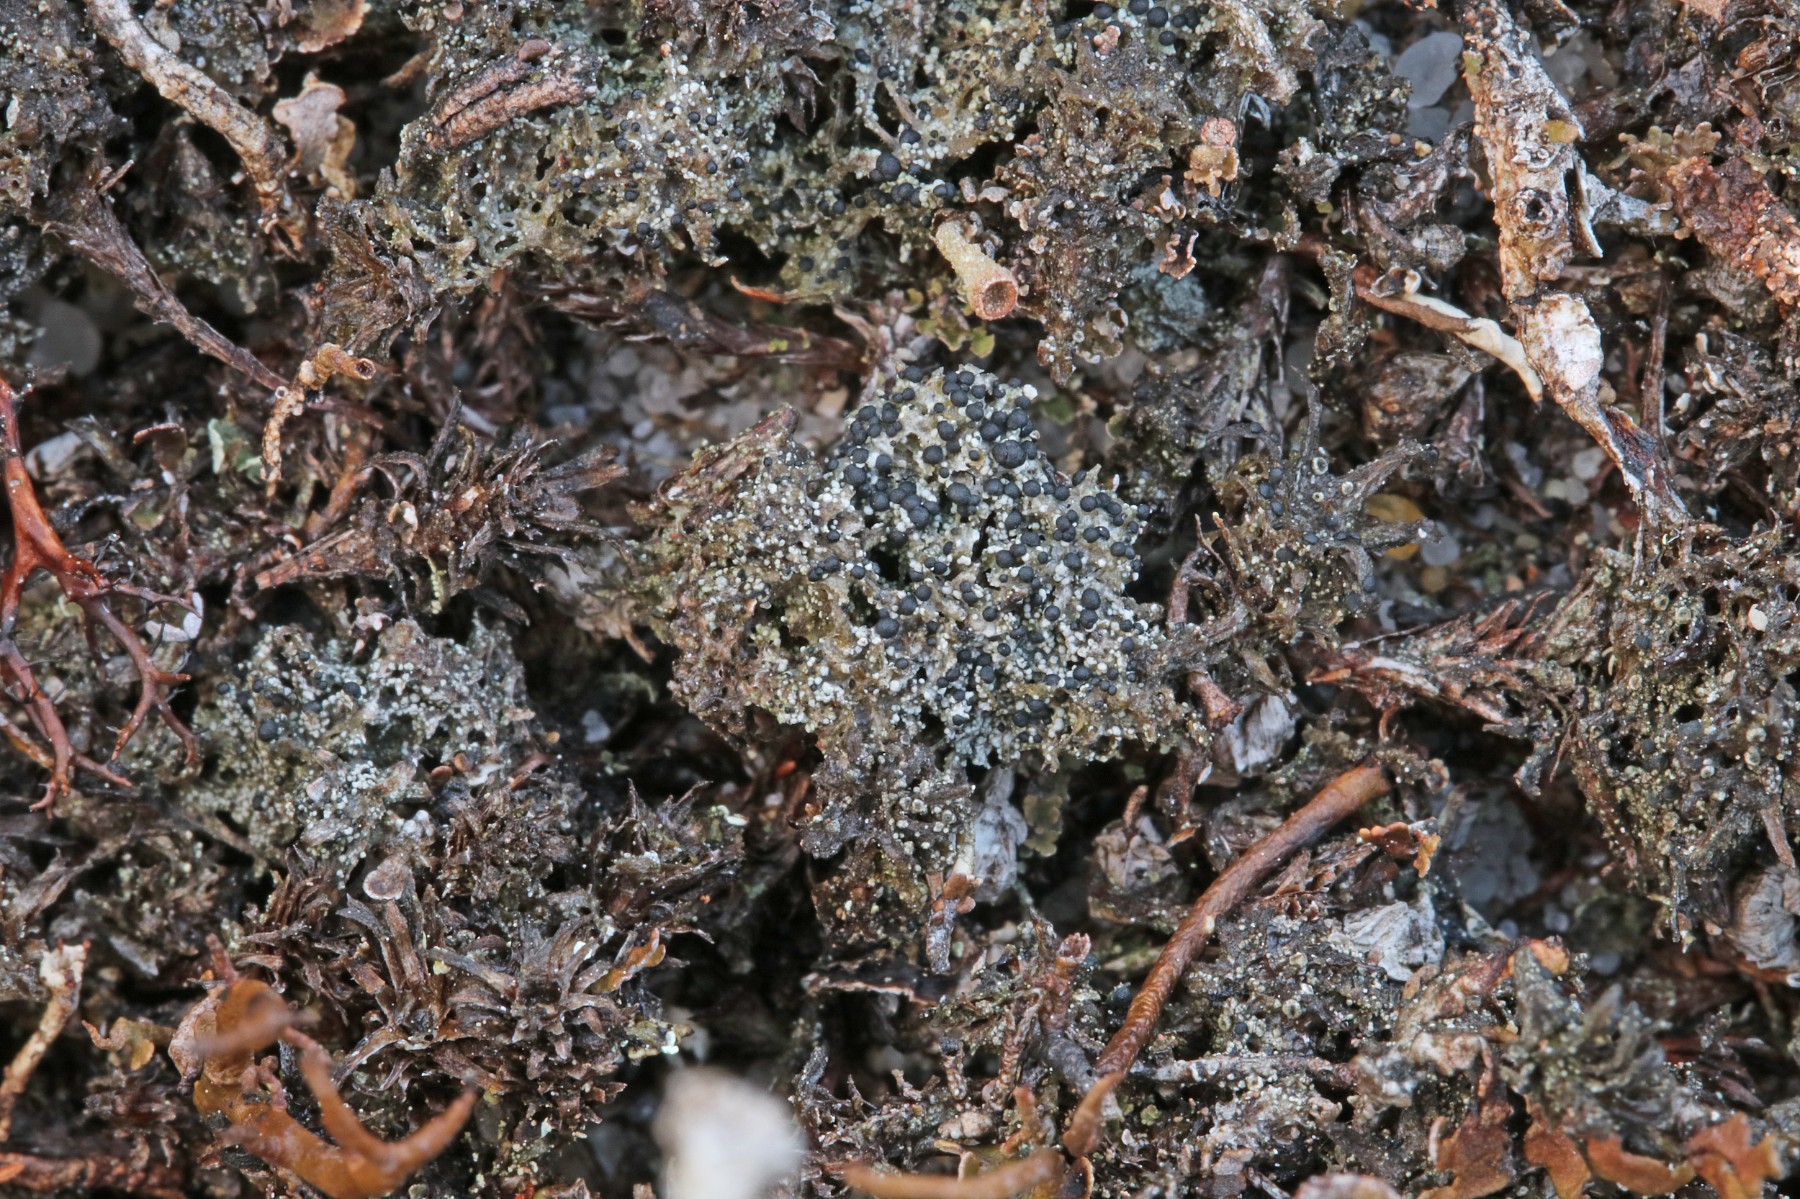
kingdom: Fungi
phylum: Ascomycota
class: Lecanoromycetes
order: Lecanorales
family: Byssolomataceae
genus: Micarea
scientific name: Micarea lignaria
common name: tørve-knaplav
